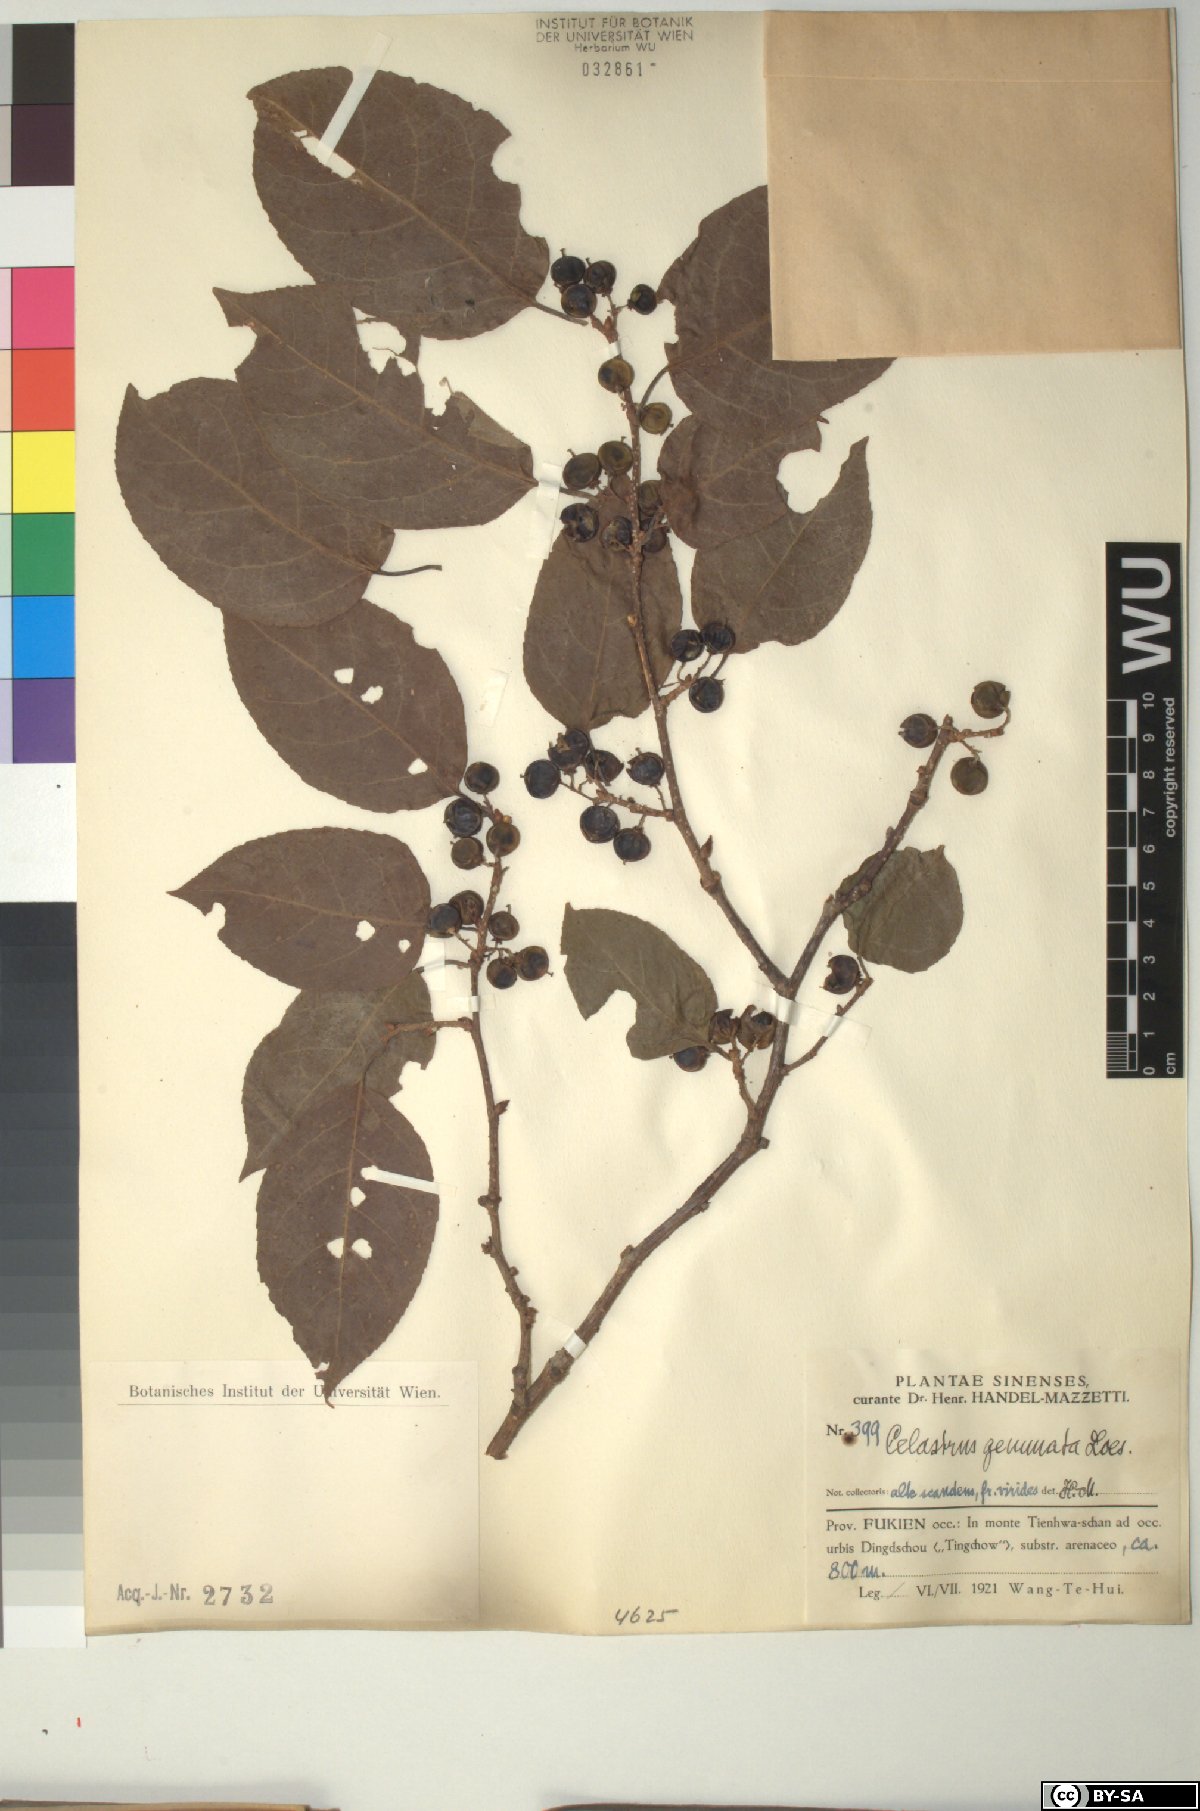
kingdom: Plantae
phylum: Tracheophyta
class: Magnoliopsida
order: Celastrales
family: Celastraceae
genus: Celastrus
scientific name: Celastrus gemmatus
